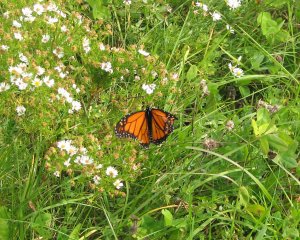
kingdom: Animalia
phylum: Arthropoda
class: Insecta
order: Lepidoptera
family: Nymphalidae
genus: Danaus
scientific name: Danaus plexippus
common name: Monarch
